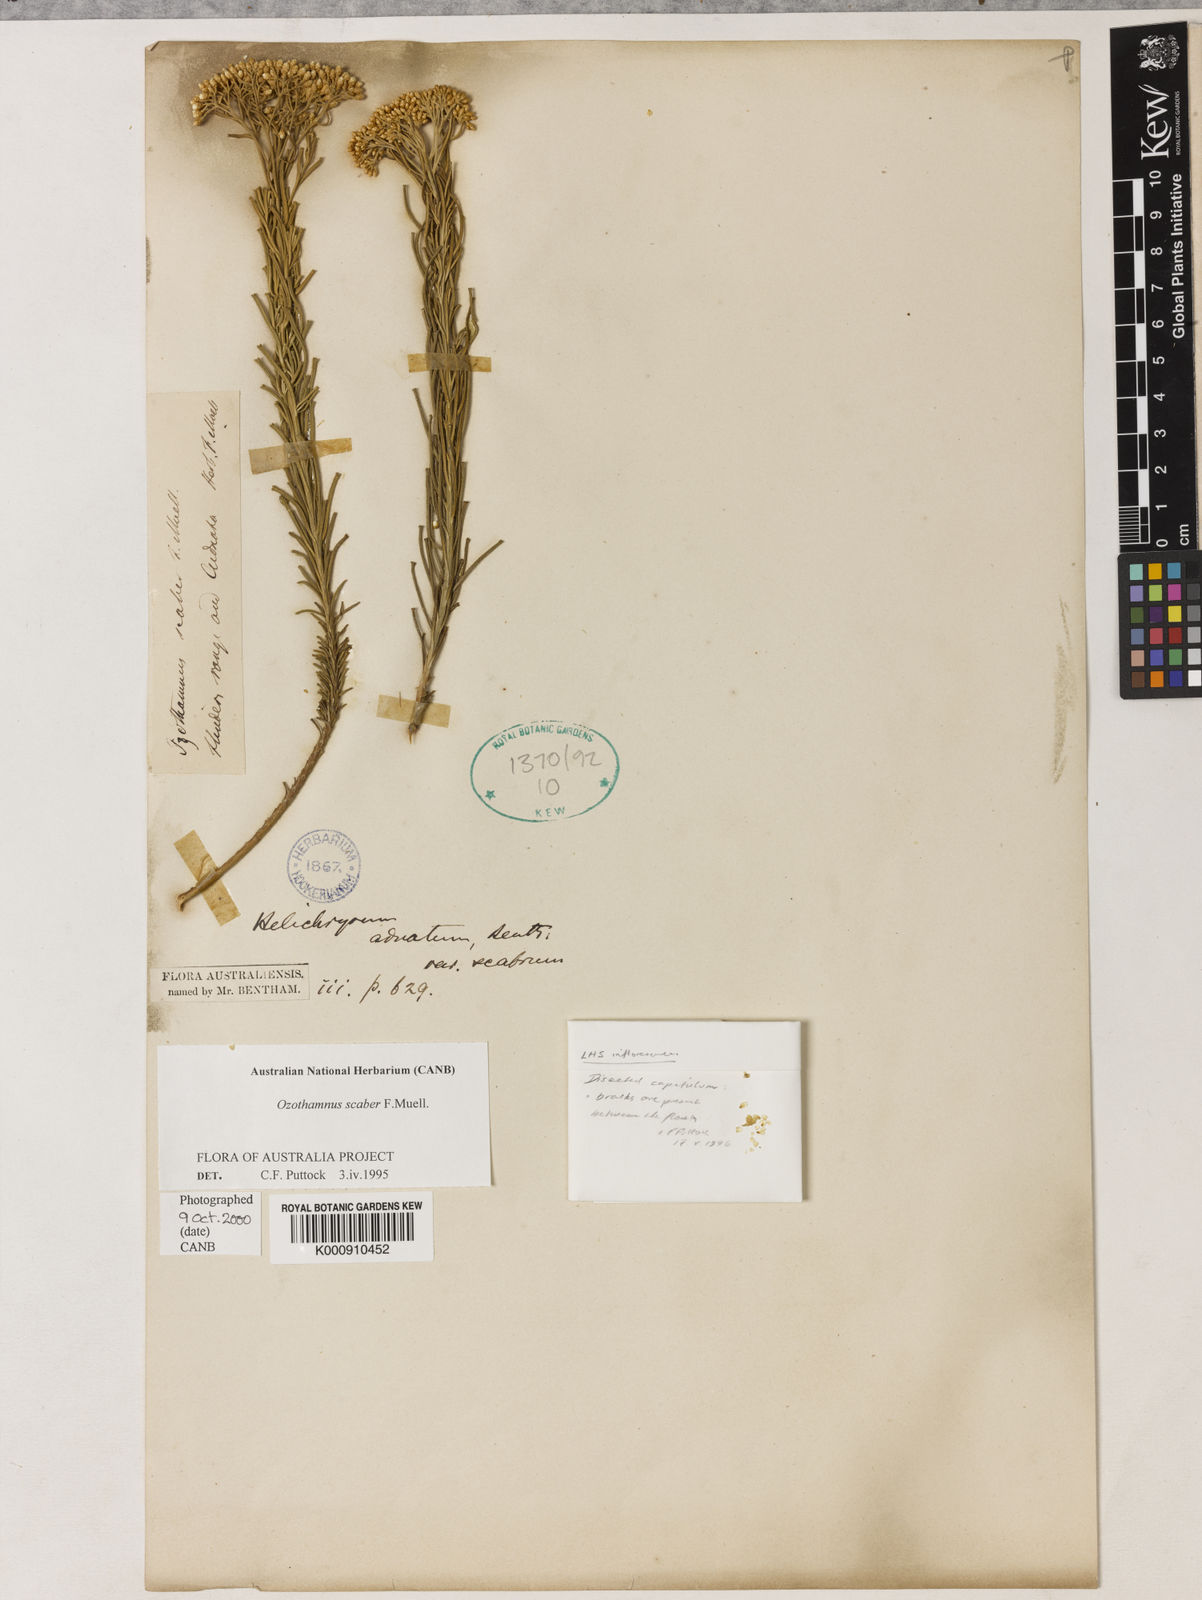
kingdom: Plantae
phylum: Tracheophyta
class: Magnoliopsida
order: Asterales
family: Asteraceae
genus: Ozothamnus
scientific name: Ozothamnus scaber
